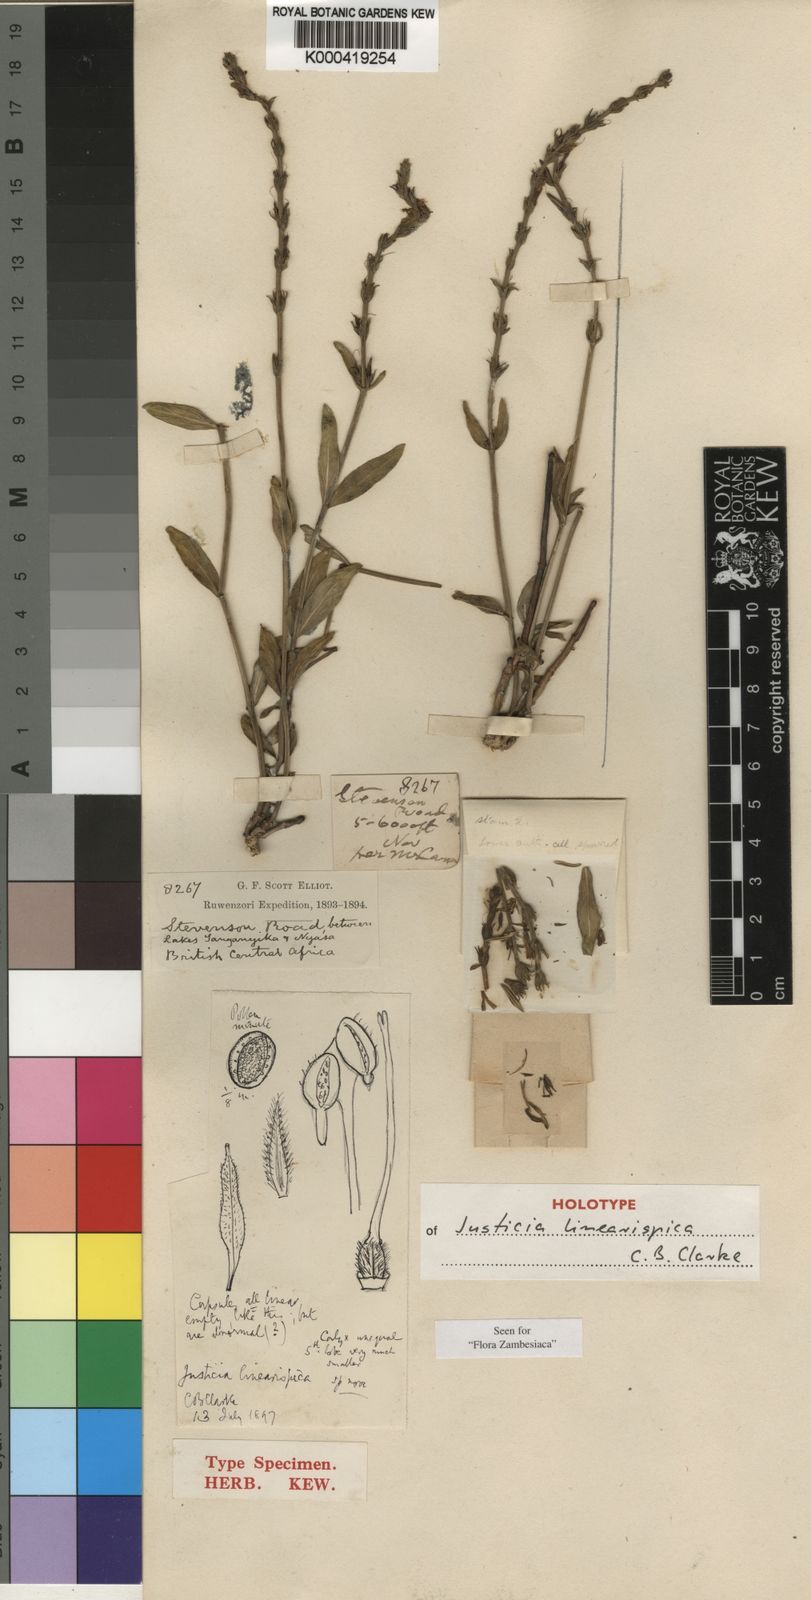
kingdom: Plantae
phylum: Tracheophyta
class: Magnoliopsida
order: Lamiales
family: Acanthaceae
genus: Justicia
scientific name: Justicia linearispica
